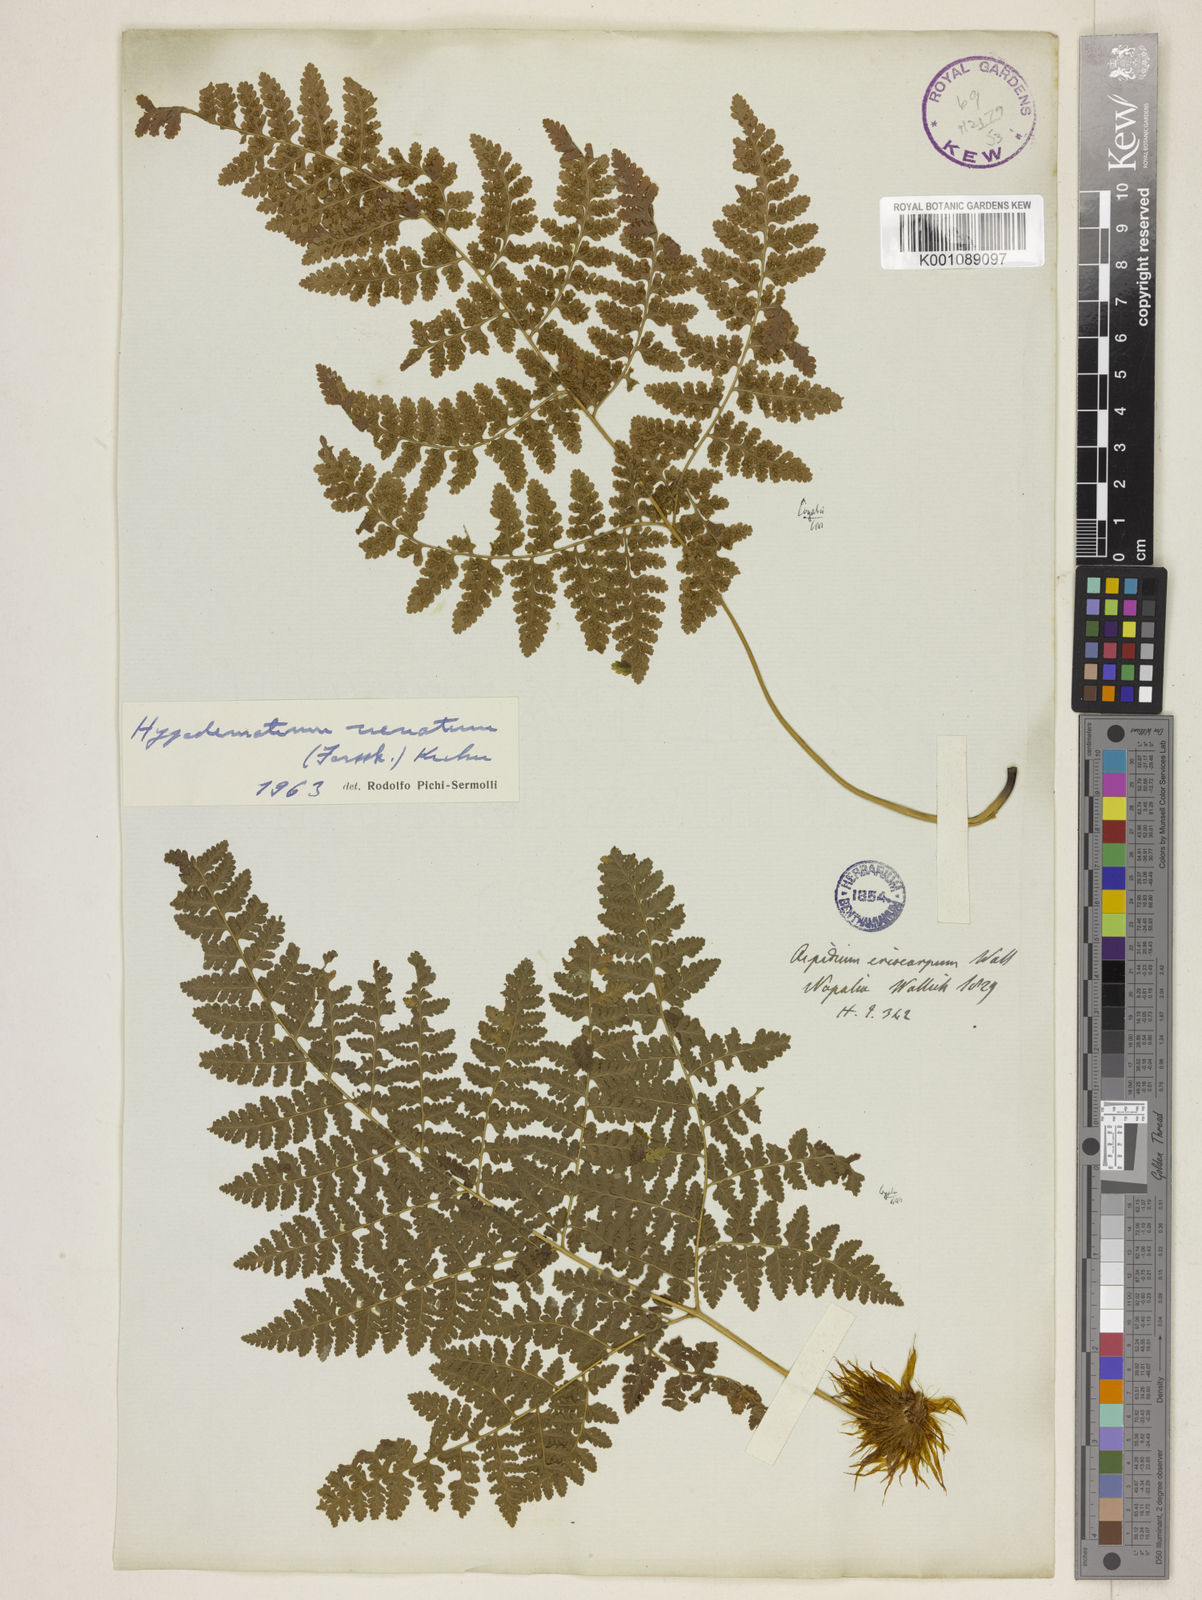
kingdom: Plantae
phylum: Tracheophyta
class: Polypodiopsida
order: Polypodiales
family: Hypodematiaceae
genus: Hypodematium
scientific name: Hypodematium chrysolepis
